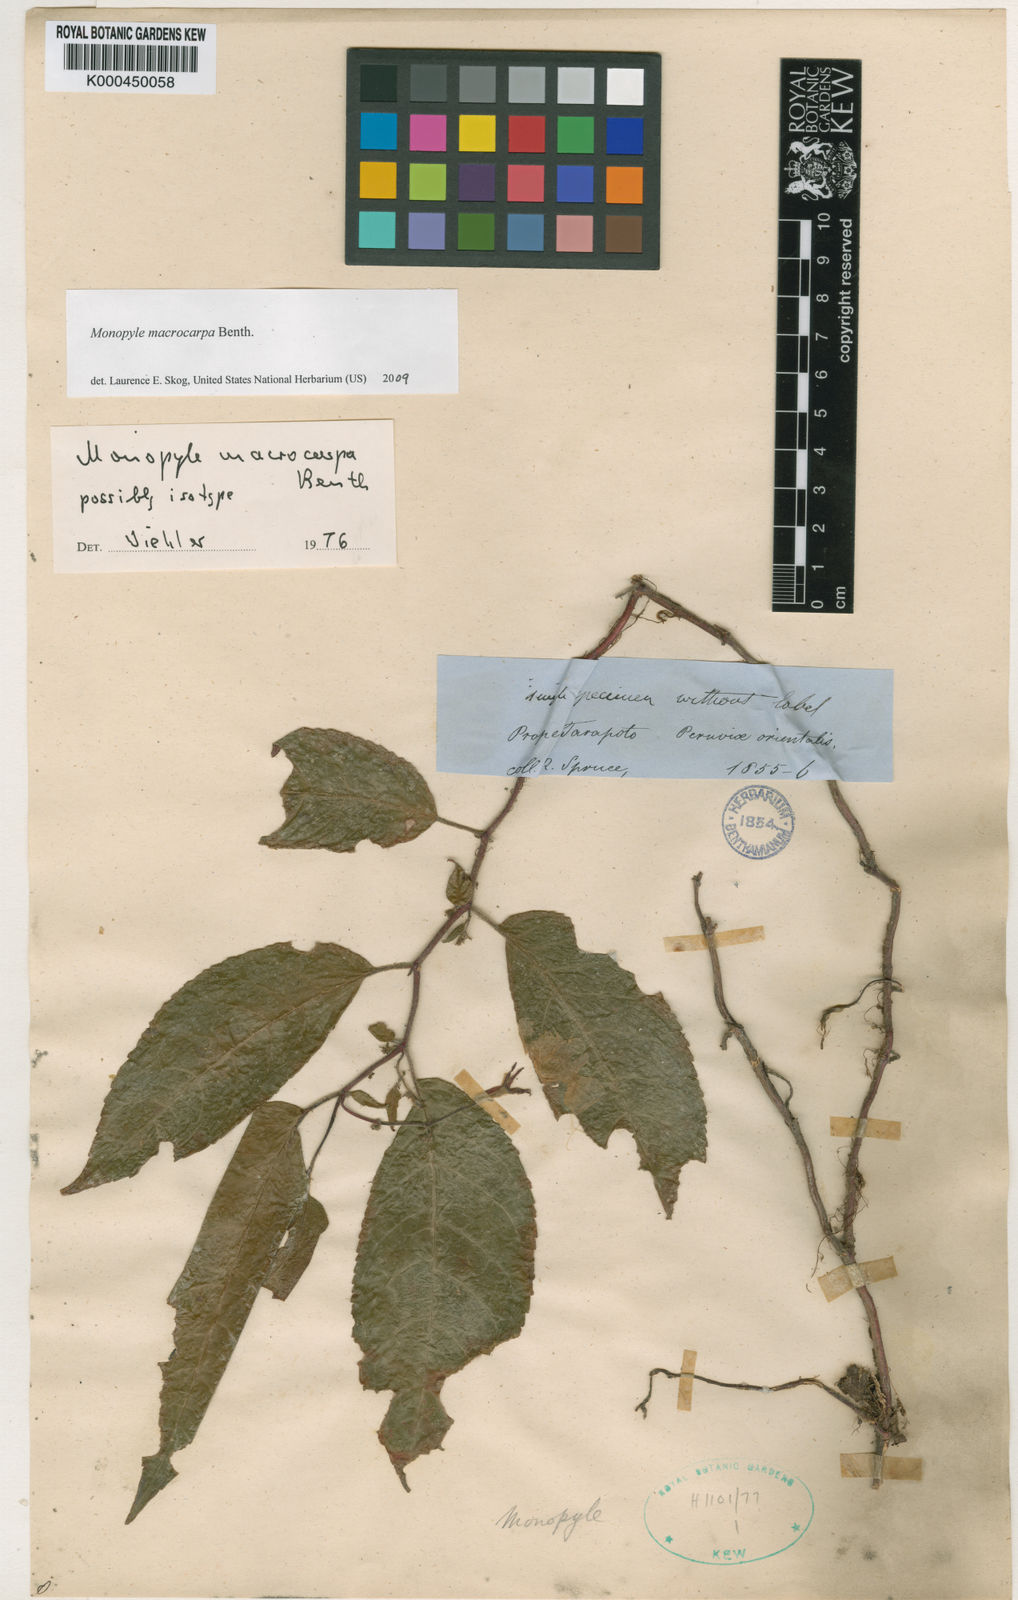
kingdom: Plantae
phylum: Tracheophyta
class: Magnoliopsida
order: Lamiales
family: Gesneriaceae
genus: Monopyle
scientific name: Monopyle macrocarpa
